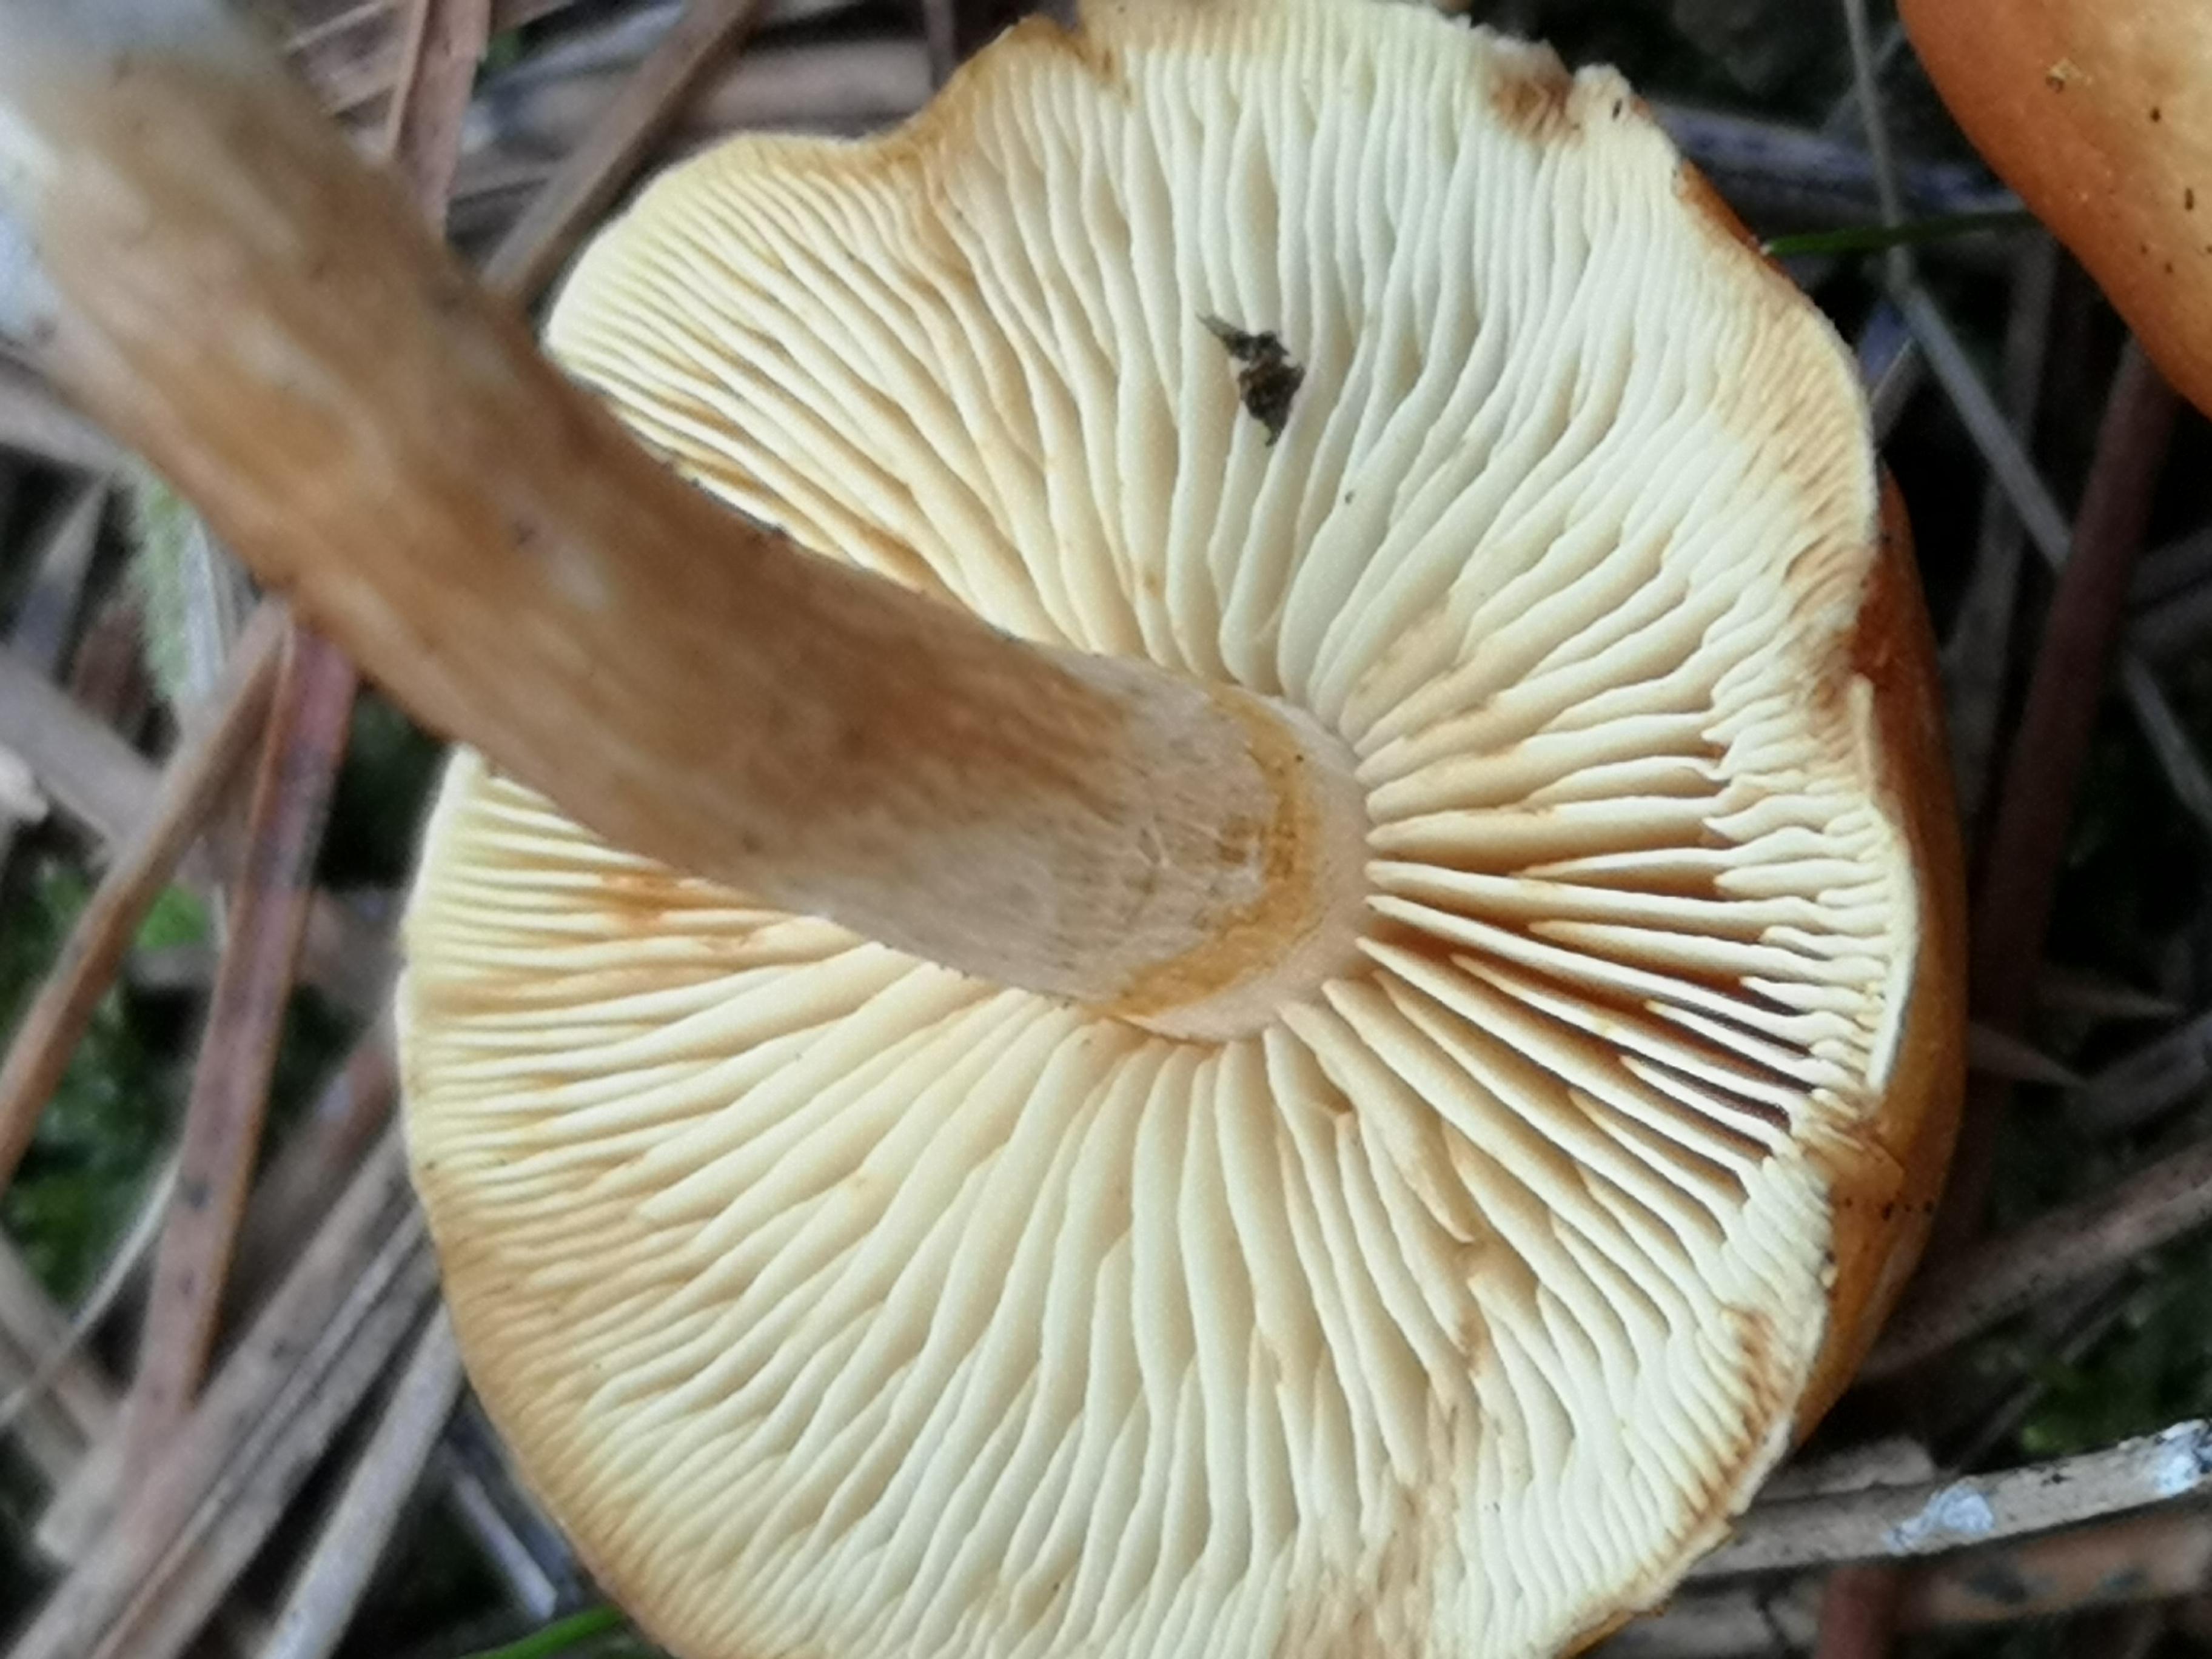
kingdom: Fungi
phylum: Basidiomycota
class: Agaricomycetes
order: Agaricales
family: Hymenogastraceae
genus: Gymnopilus
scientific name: Gymnopilus penetrans
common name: plettet flammehat
